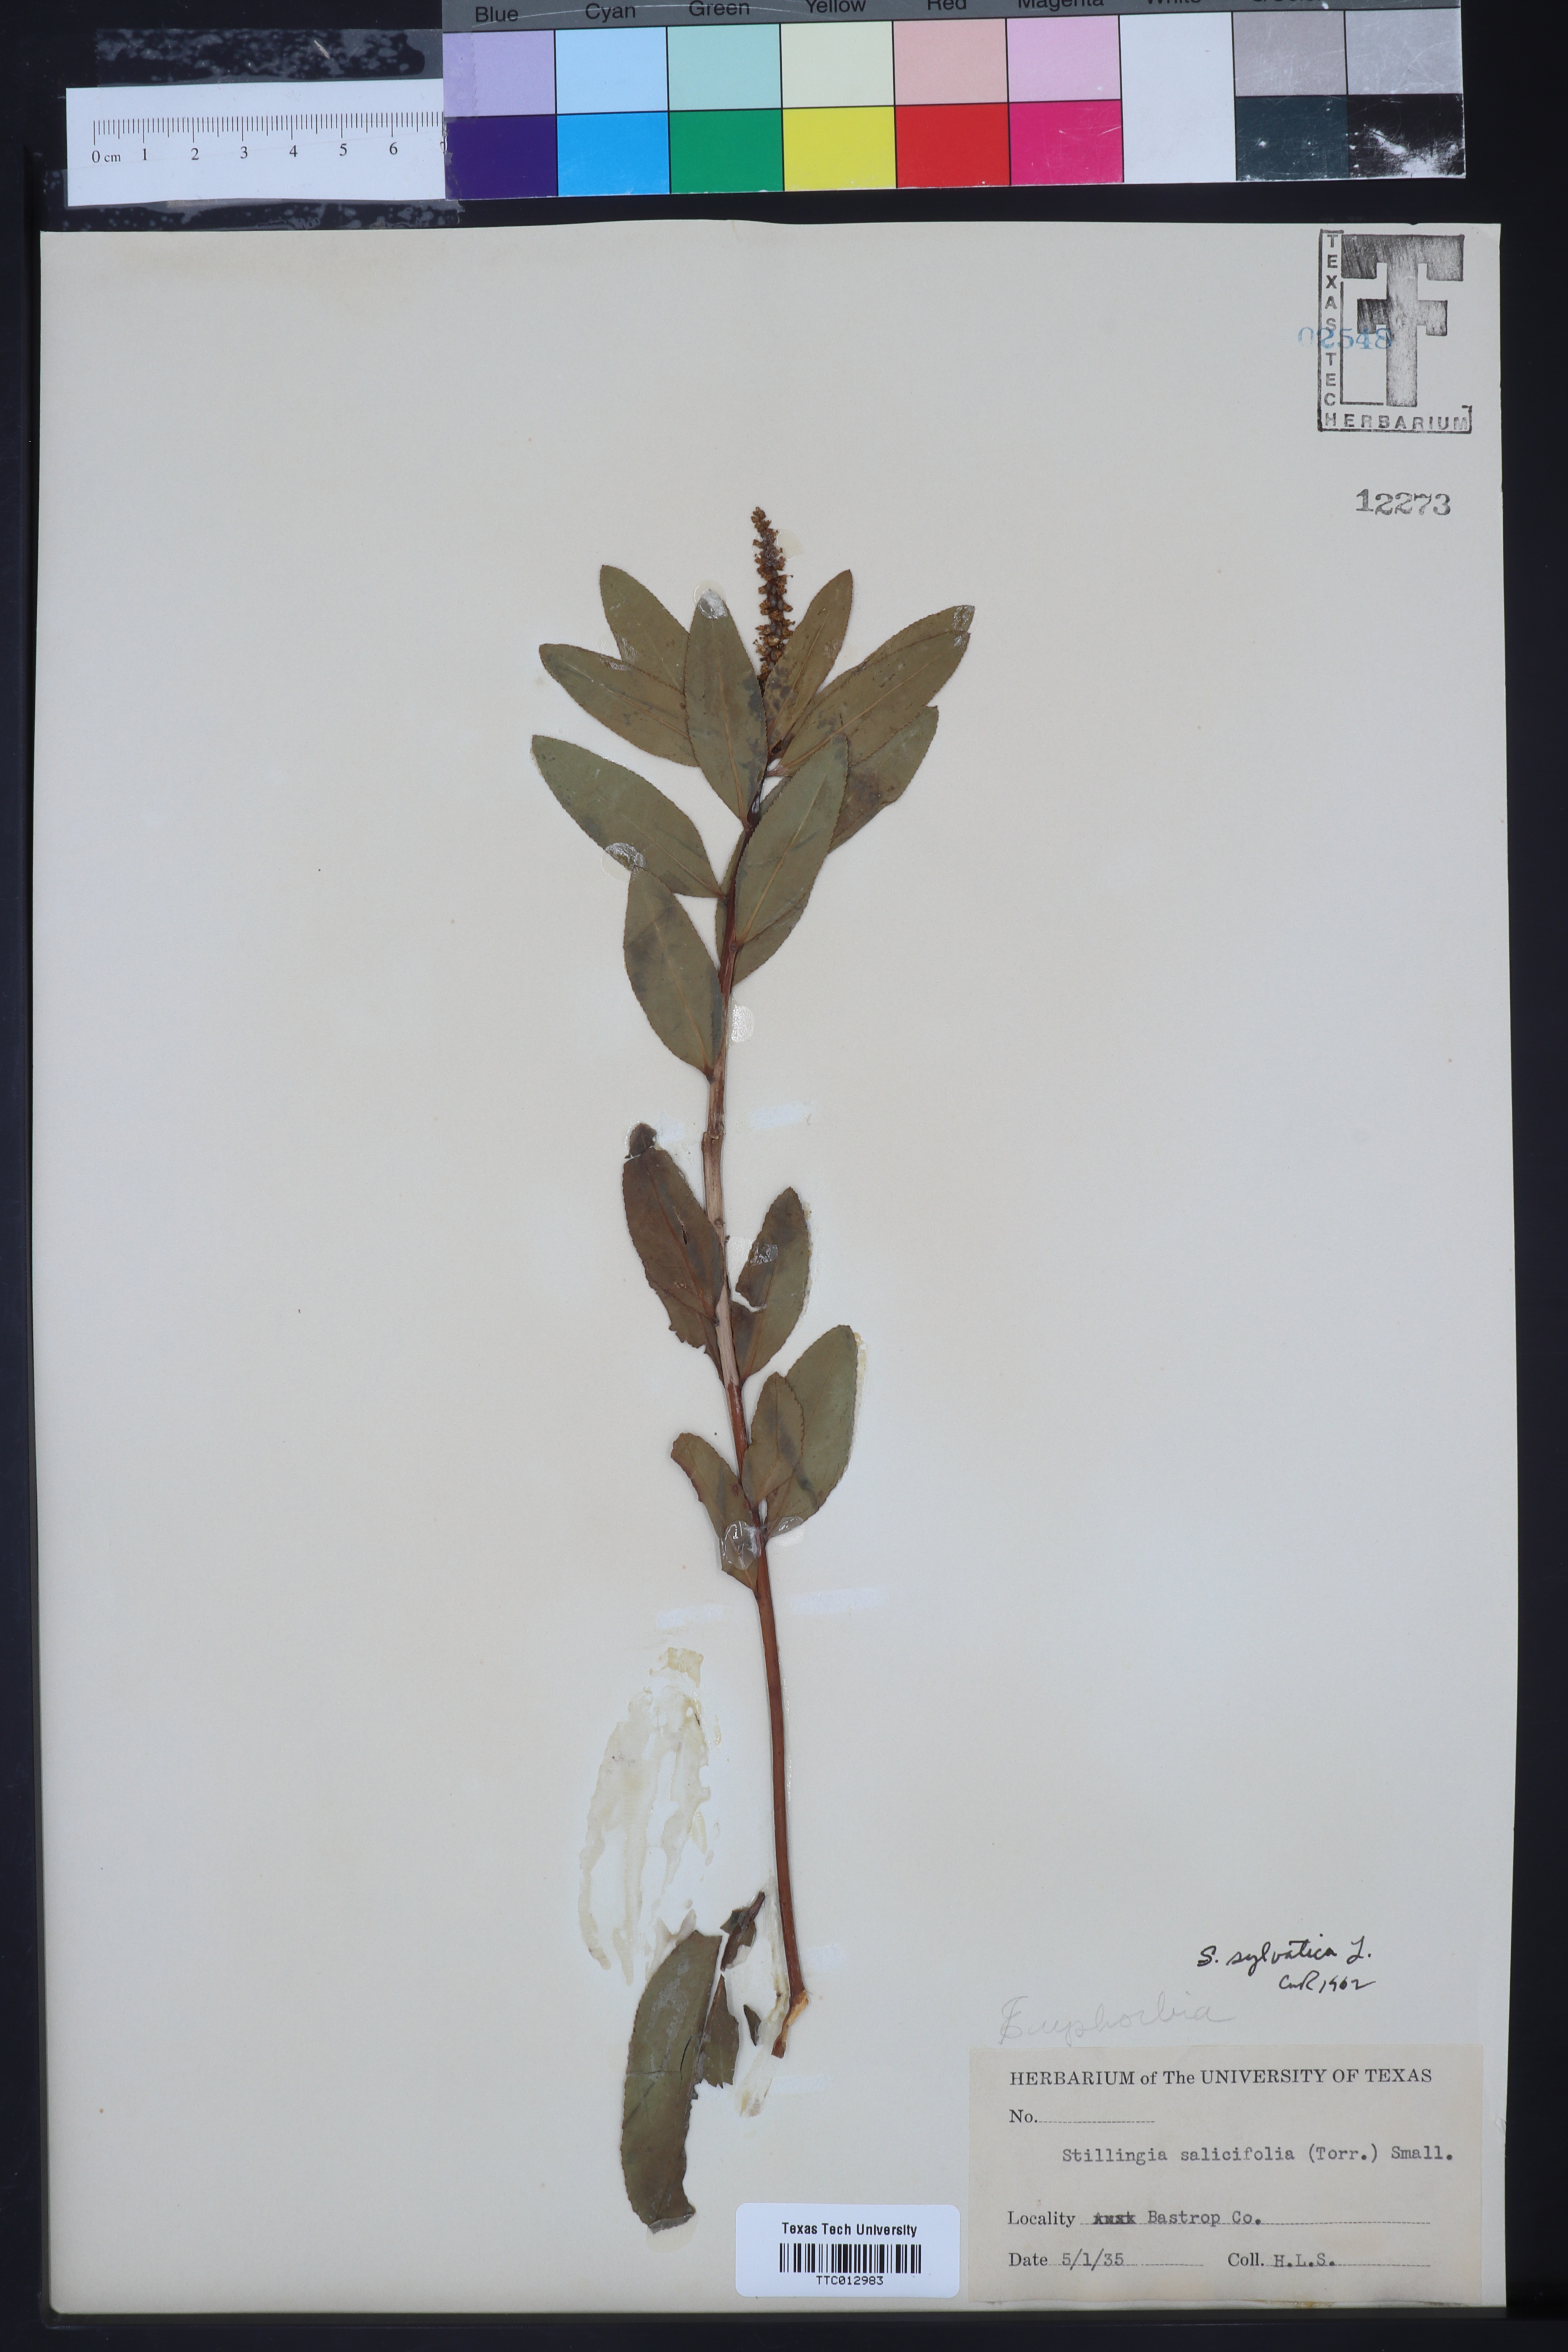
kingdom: Plantae
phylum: Tracheophyta
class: Magnoliopsida
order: Malpighiales
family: Euphorbiaceae
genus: Stillingia
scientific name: Stillingia sylvatica
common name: Queen's-delight
